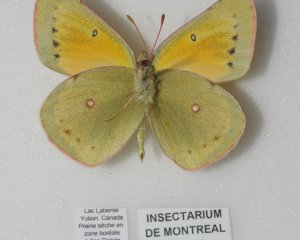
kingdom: Animalia
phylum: Arthropoda
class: Insecta
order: Lepidoptera
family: Pieridae
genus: Colias
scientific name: Colias christina
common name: Christina Sulphur
